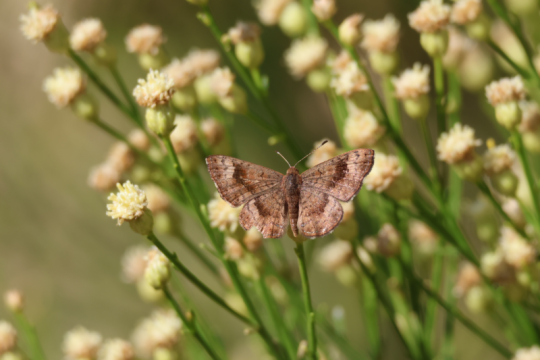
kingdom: Animalia
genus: Calephelis
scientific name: Calephelis nemesis
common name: Fatal Metalmark
